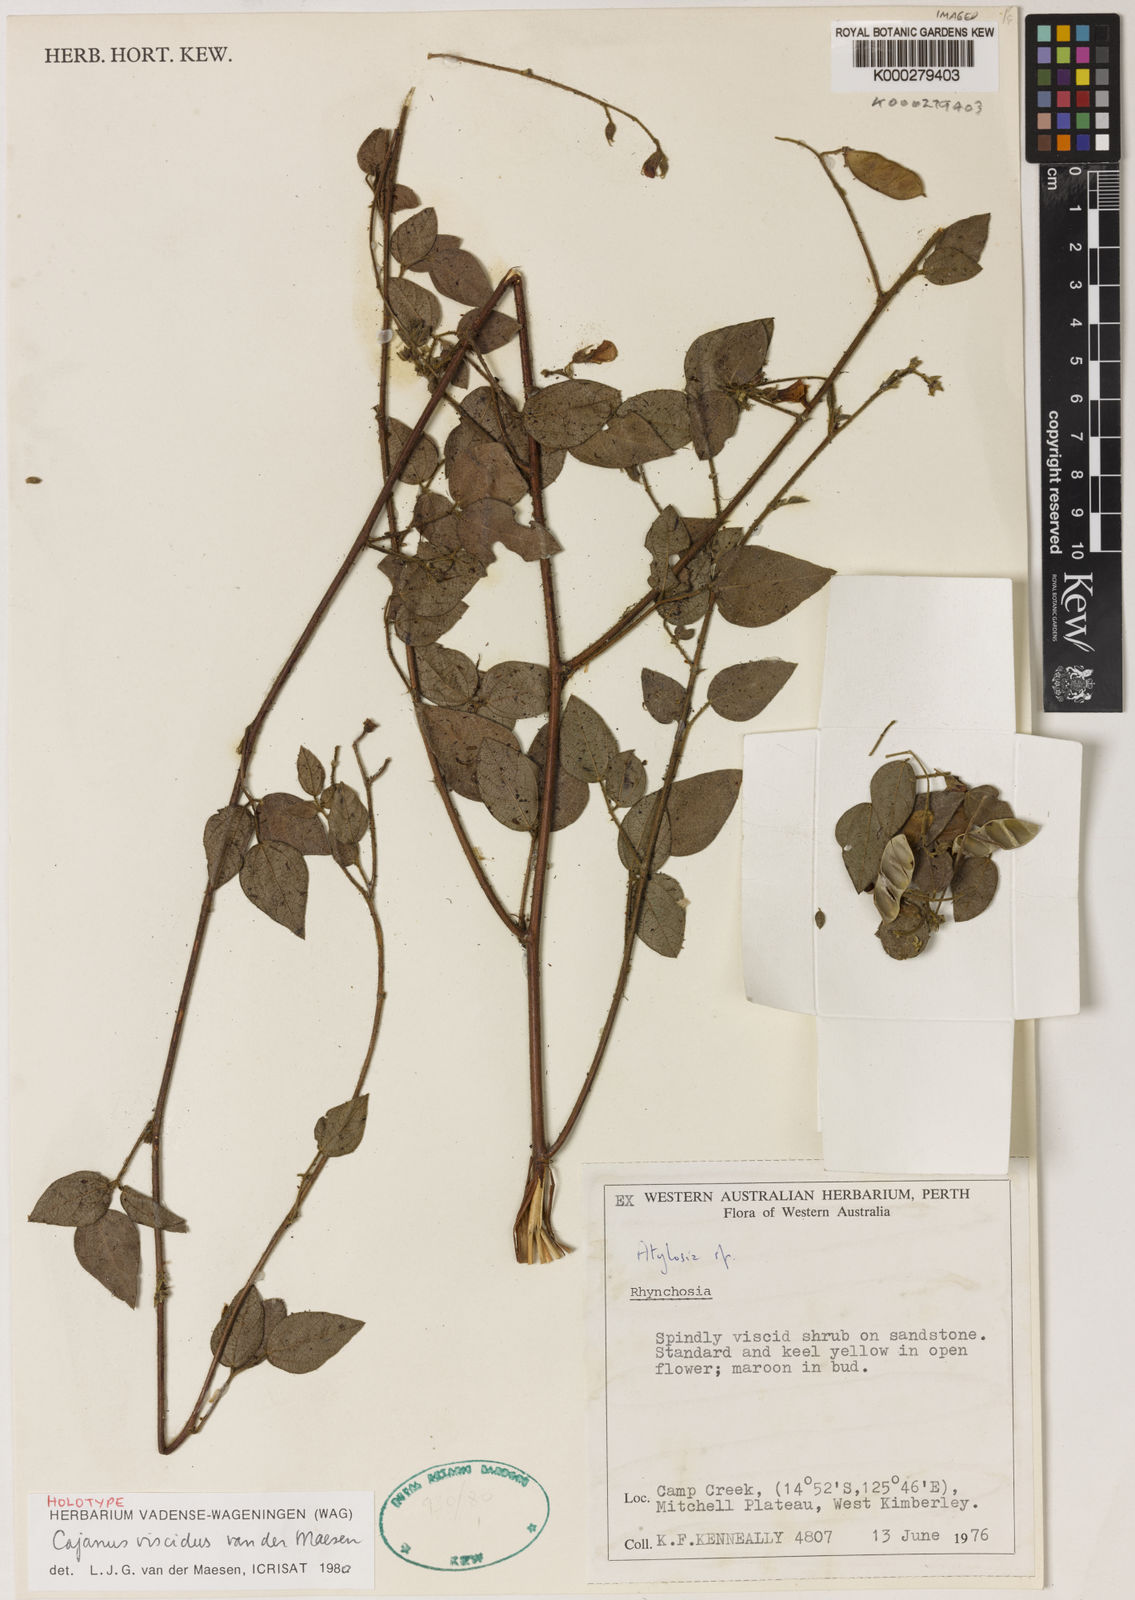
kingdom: Plantae
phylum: Tracheophyta
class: Magnoliopsida
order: Fabales
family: Fabaceae
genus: Cajanus
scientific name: Cajanus viscidus
